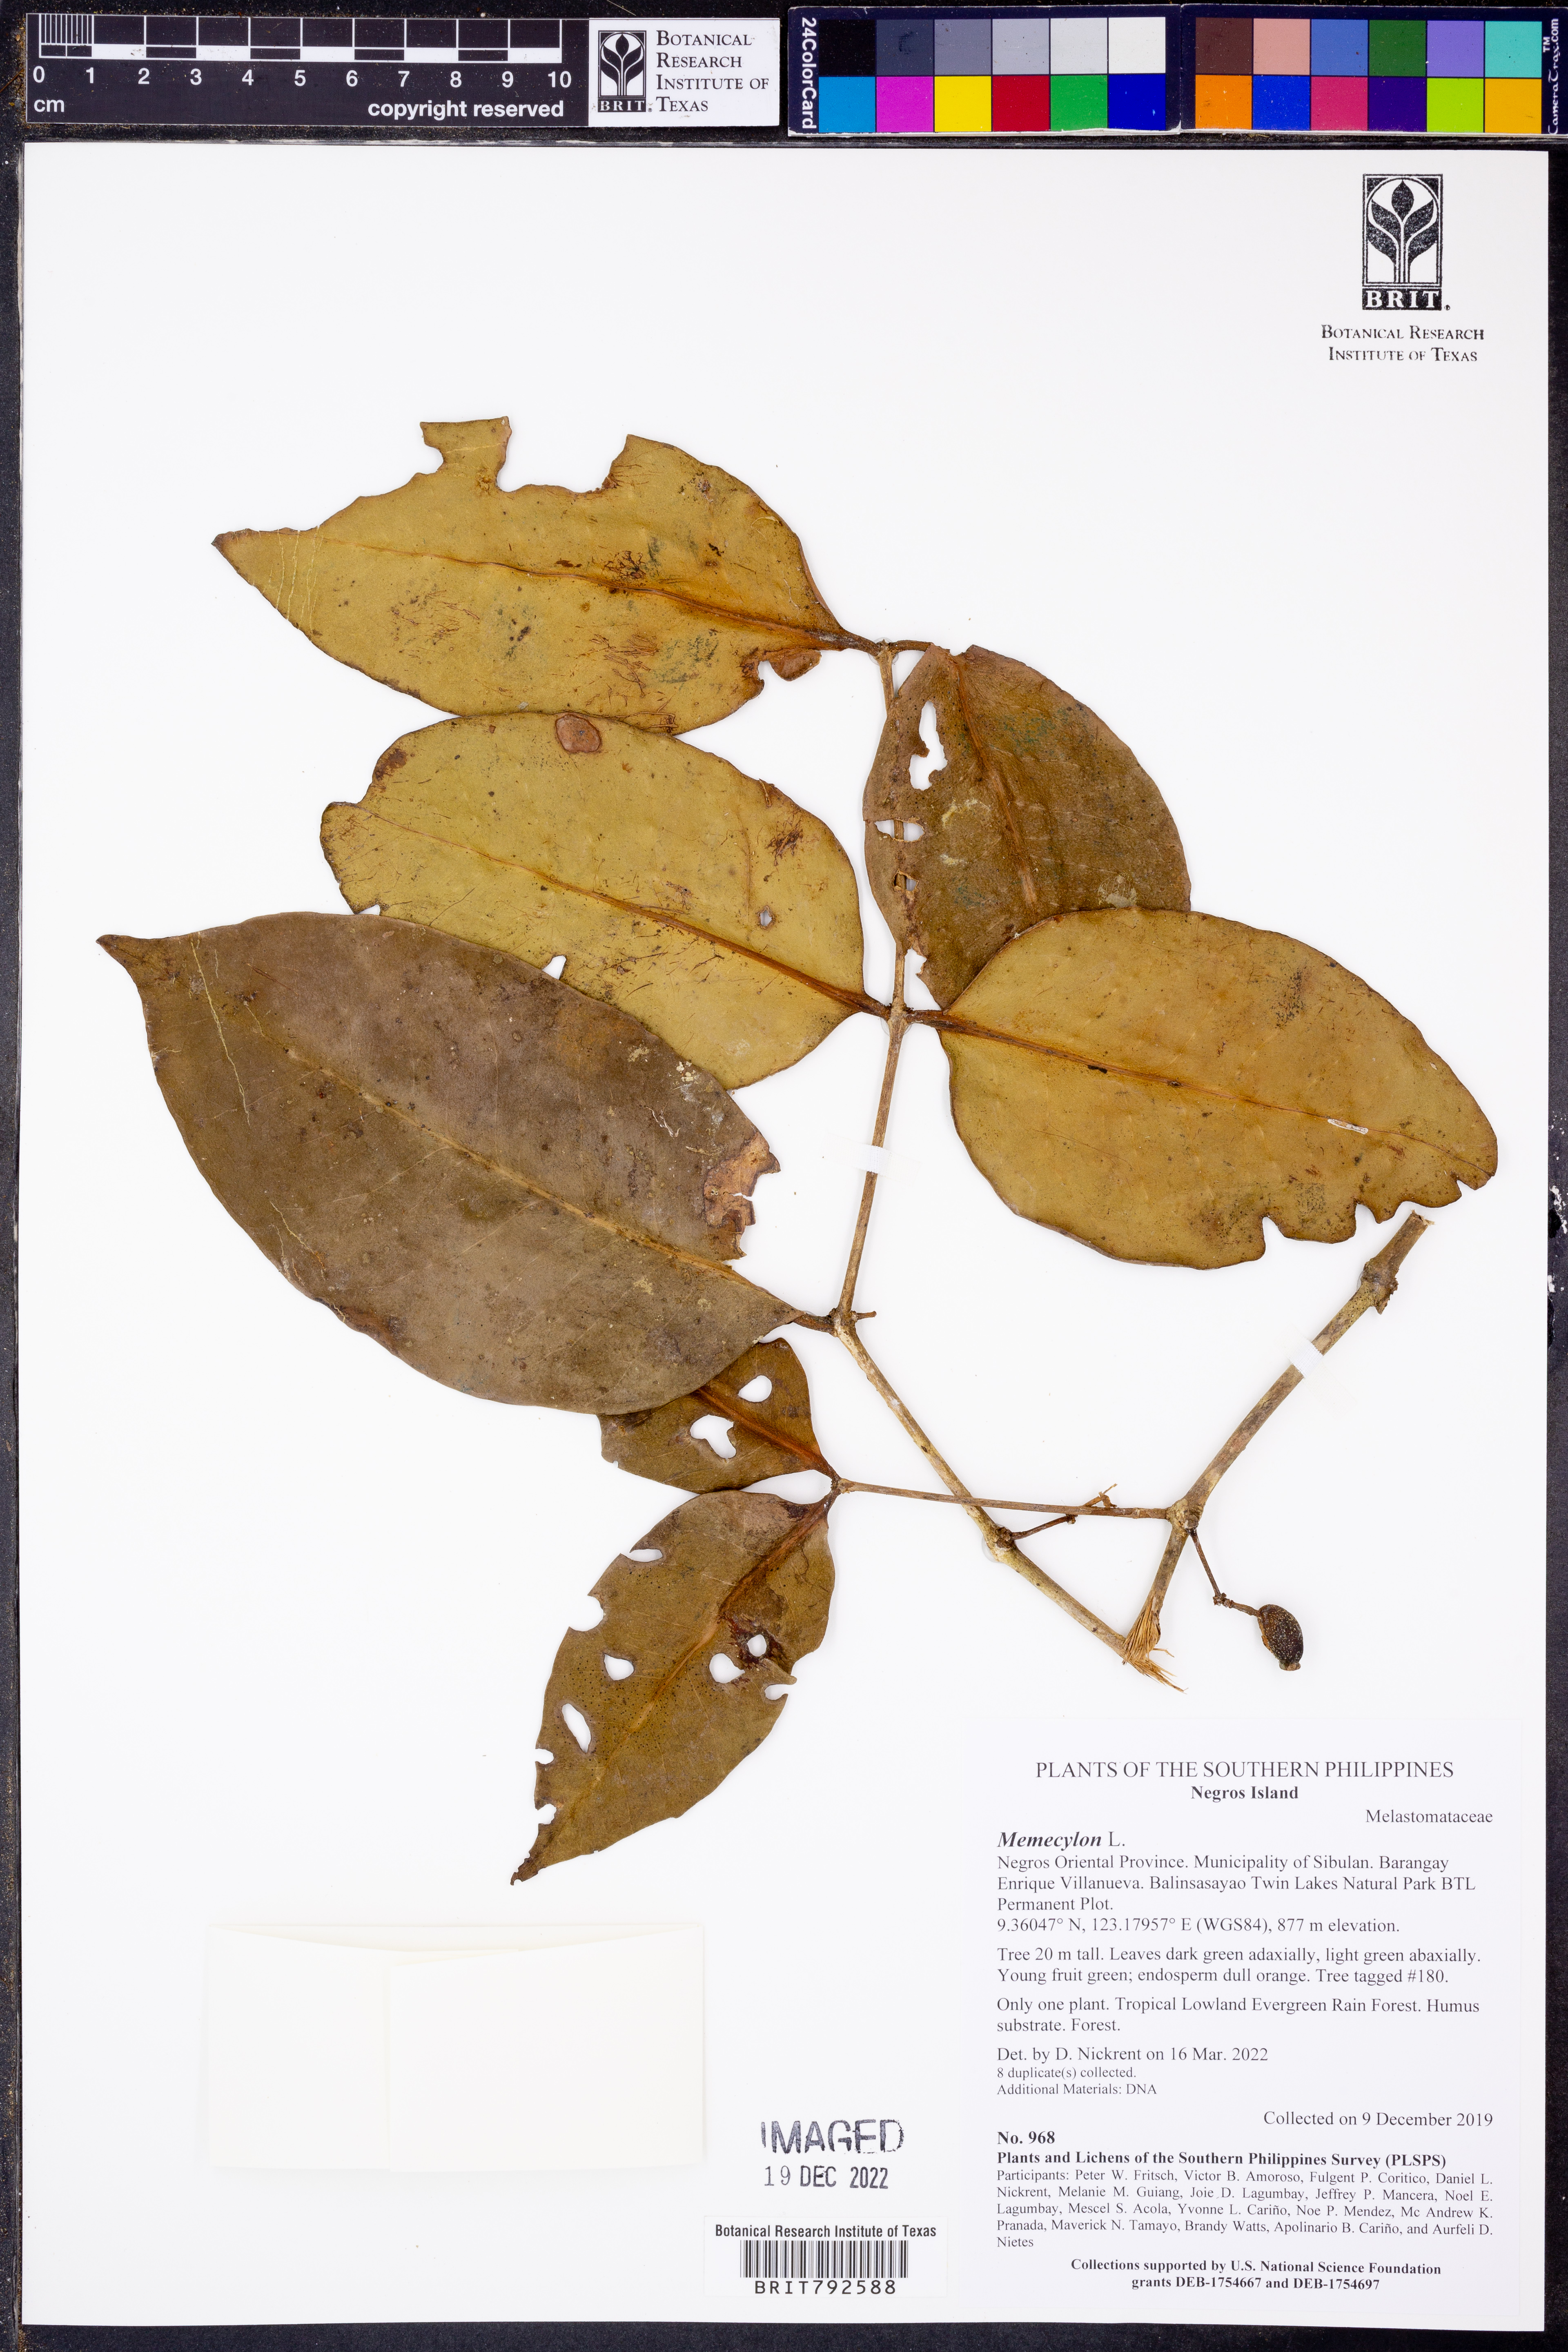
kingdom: Plantae
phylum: Tracheophyta
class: Magnoliopsida
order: Myrtales
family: Melastomataceae
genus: Memecylon
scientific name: Memecylon
